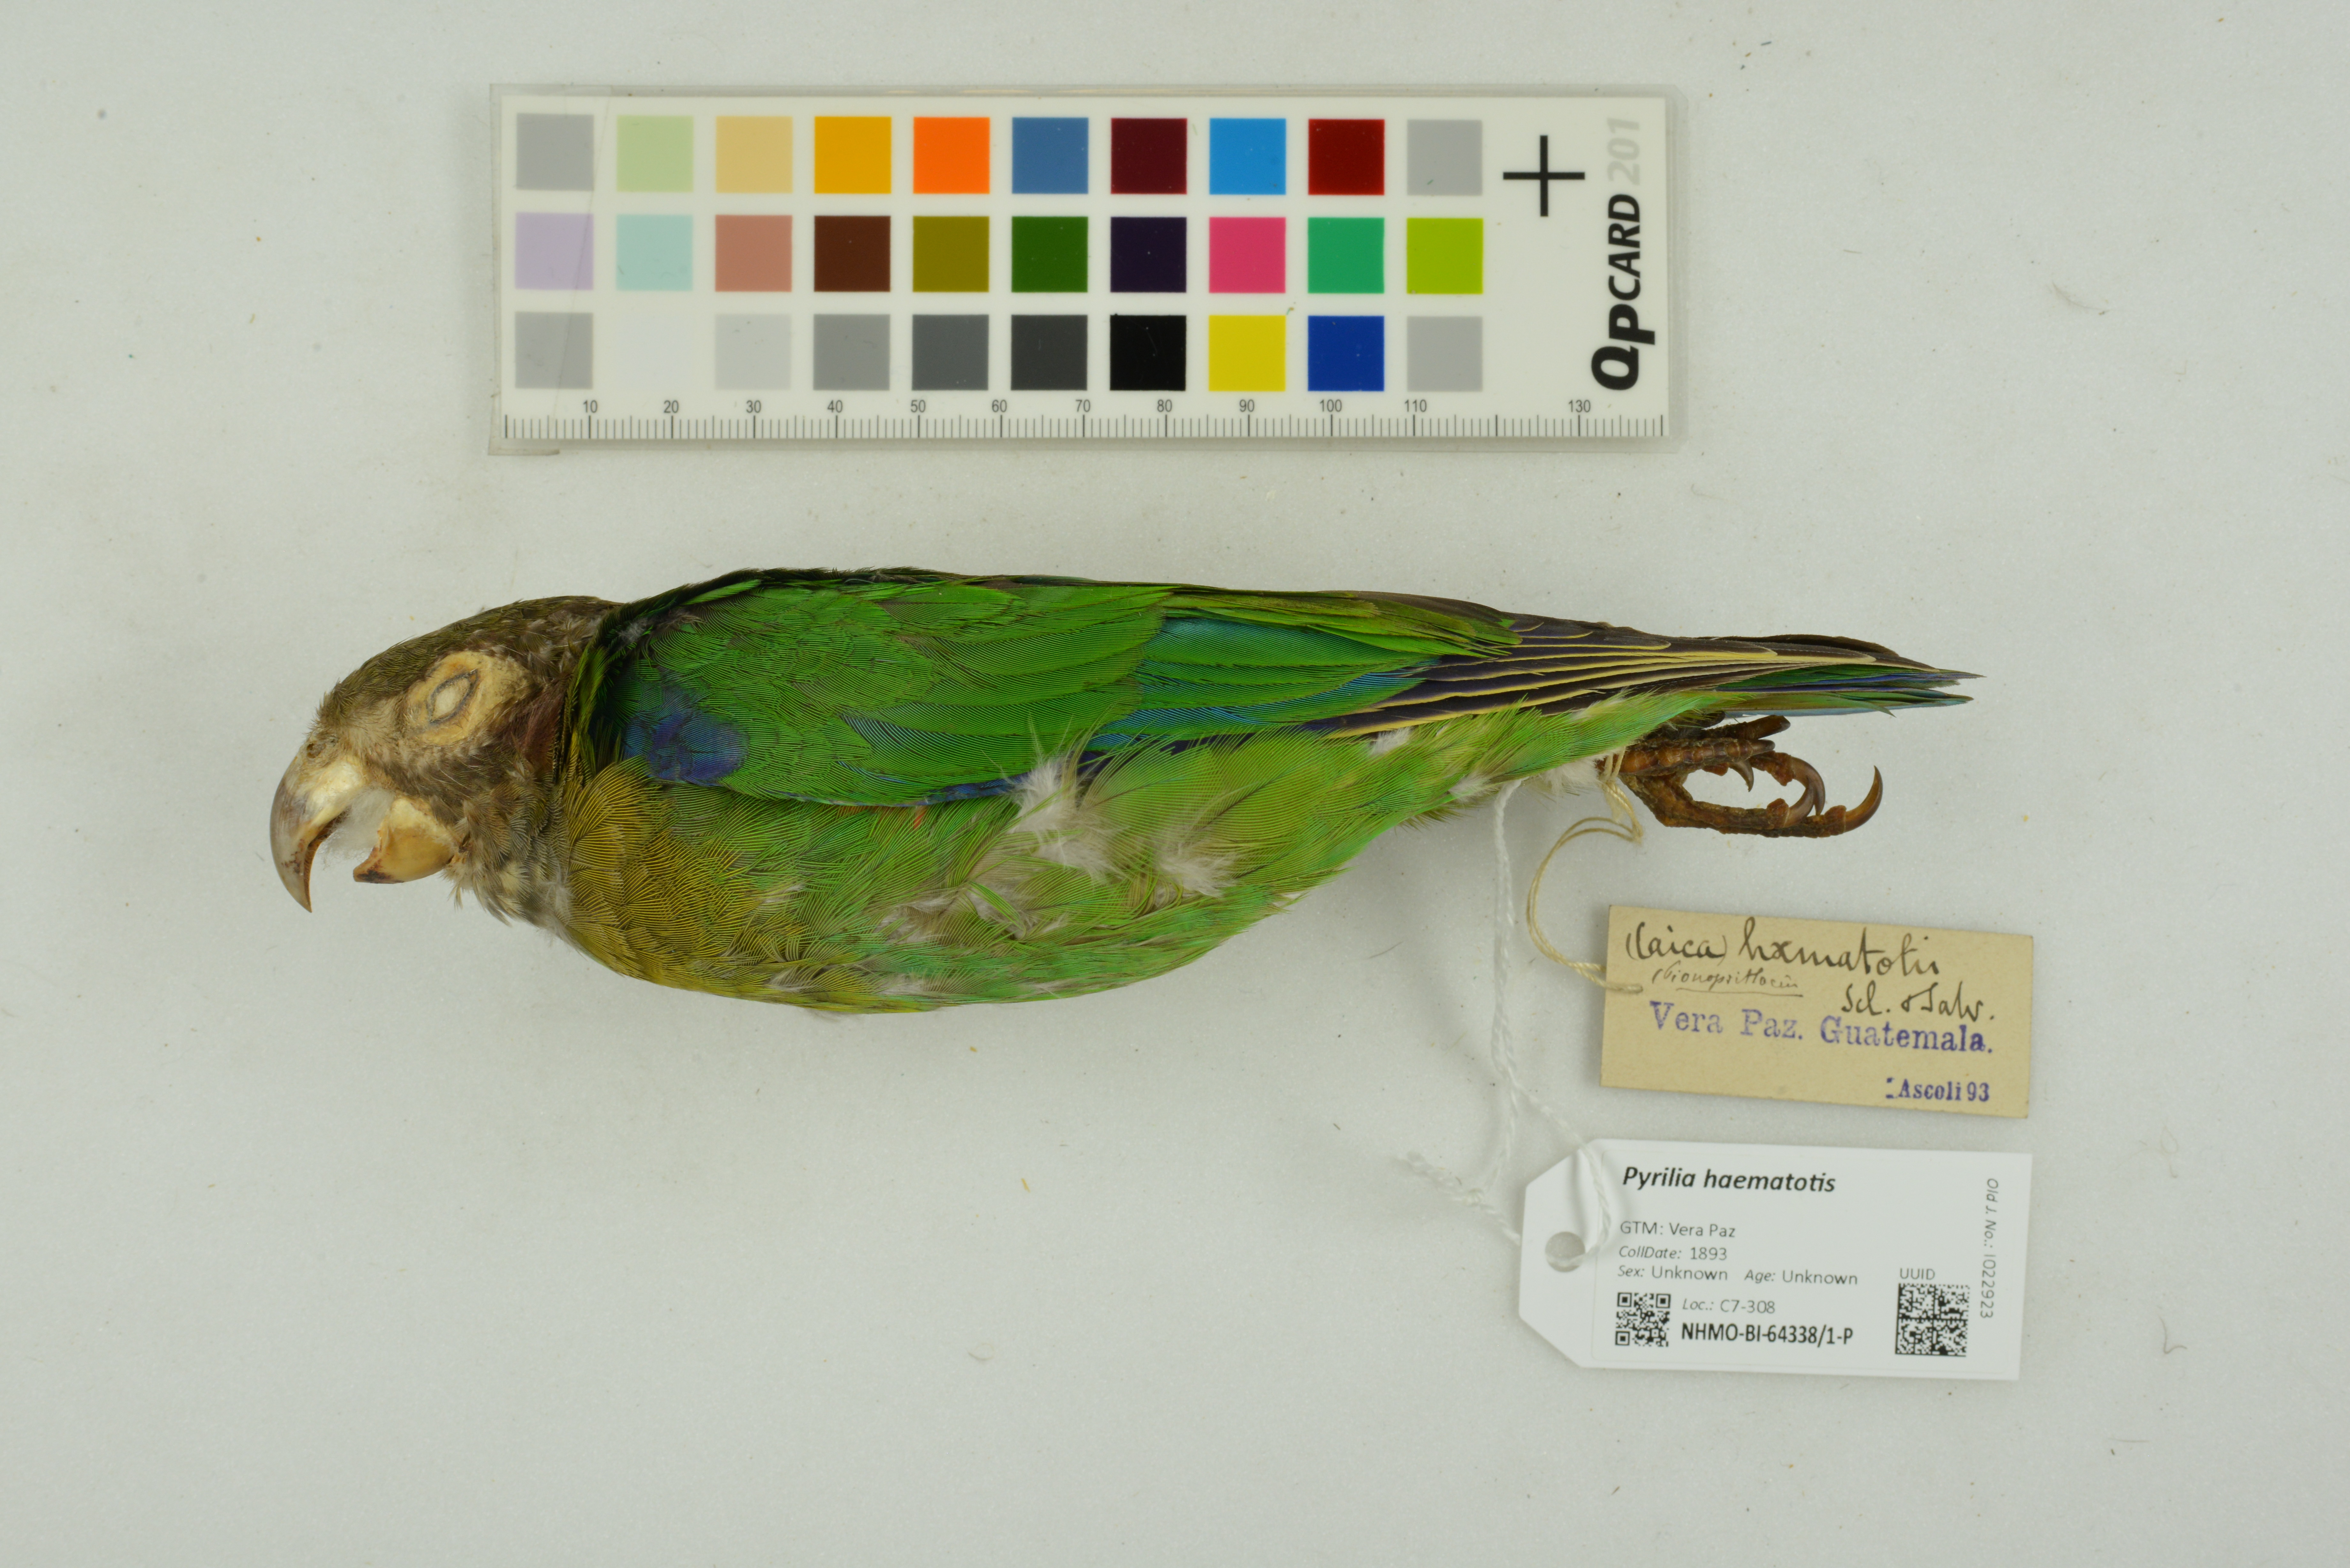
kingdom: Animalia
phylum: Chordata
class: Aves
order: Psittaciformes
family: Psittacidae
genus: Pionopsitta
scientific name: Pionopsitta haematotis
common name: Brown-hooded parrot
